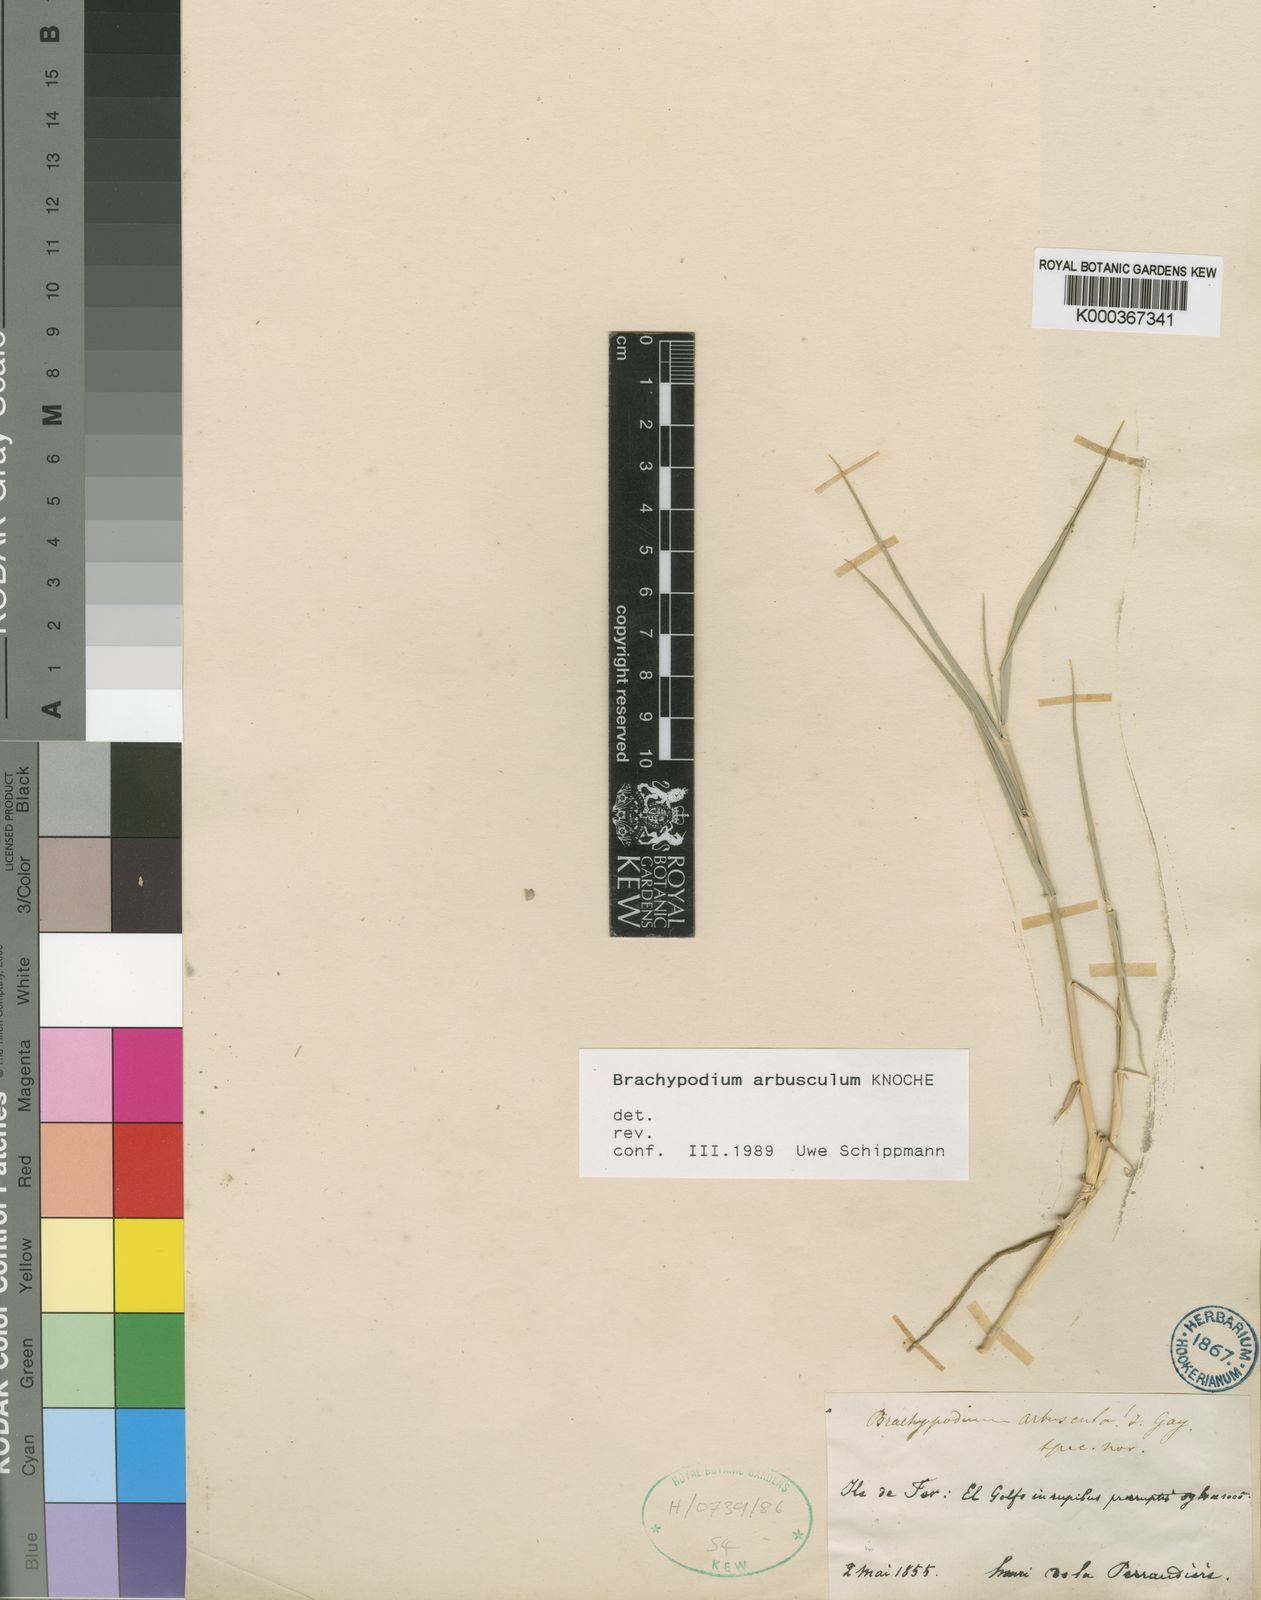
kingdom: Plantae
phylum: Tracheophyta
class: Liliopsida
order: Poales
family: Poaceae
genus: Brachypodium
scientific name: Brachypodium
